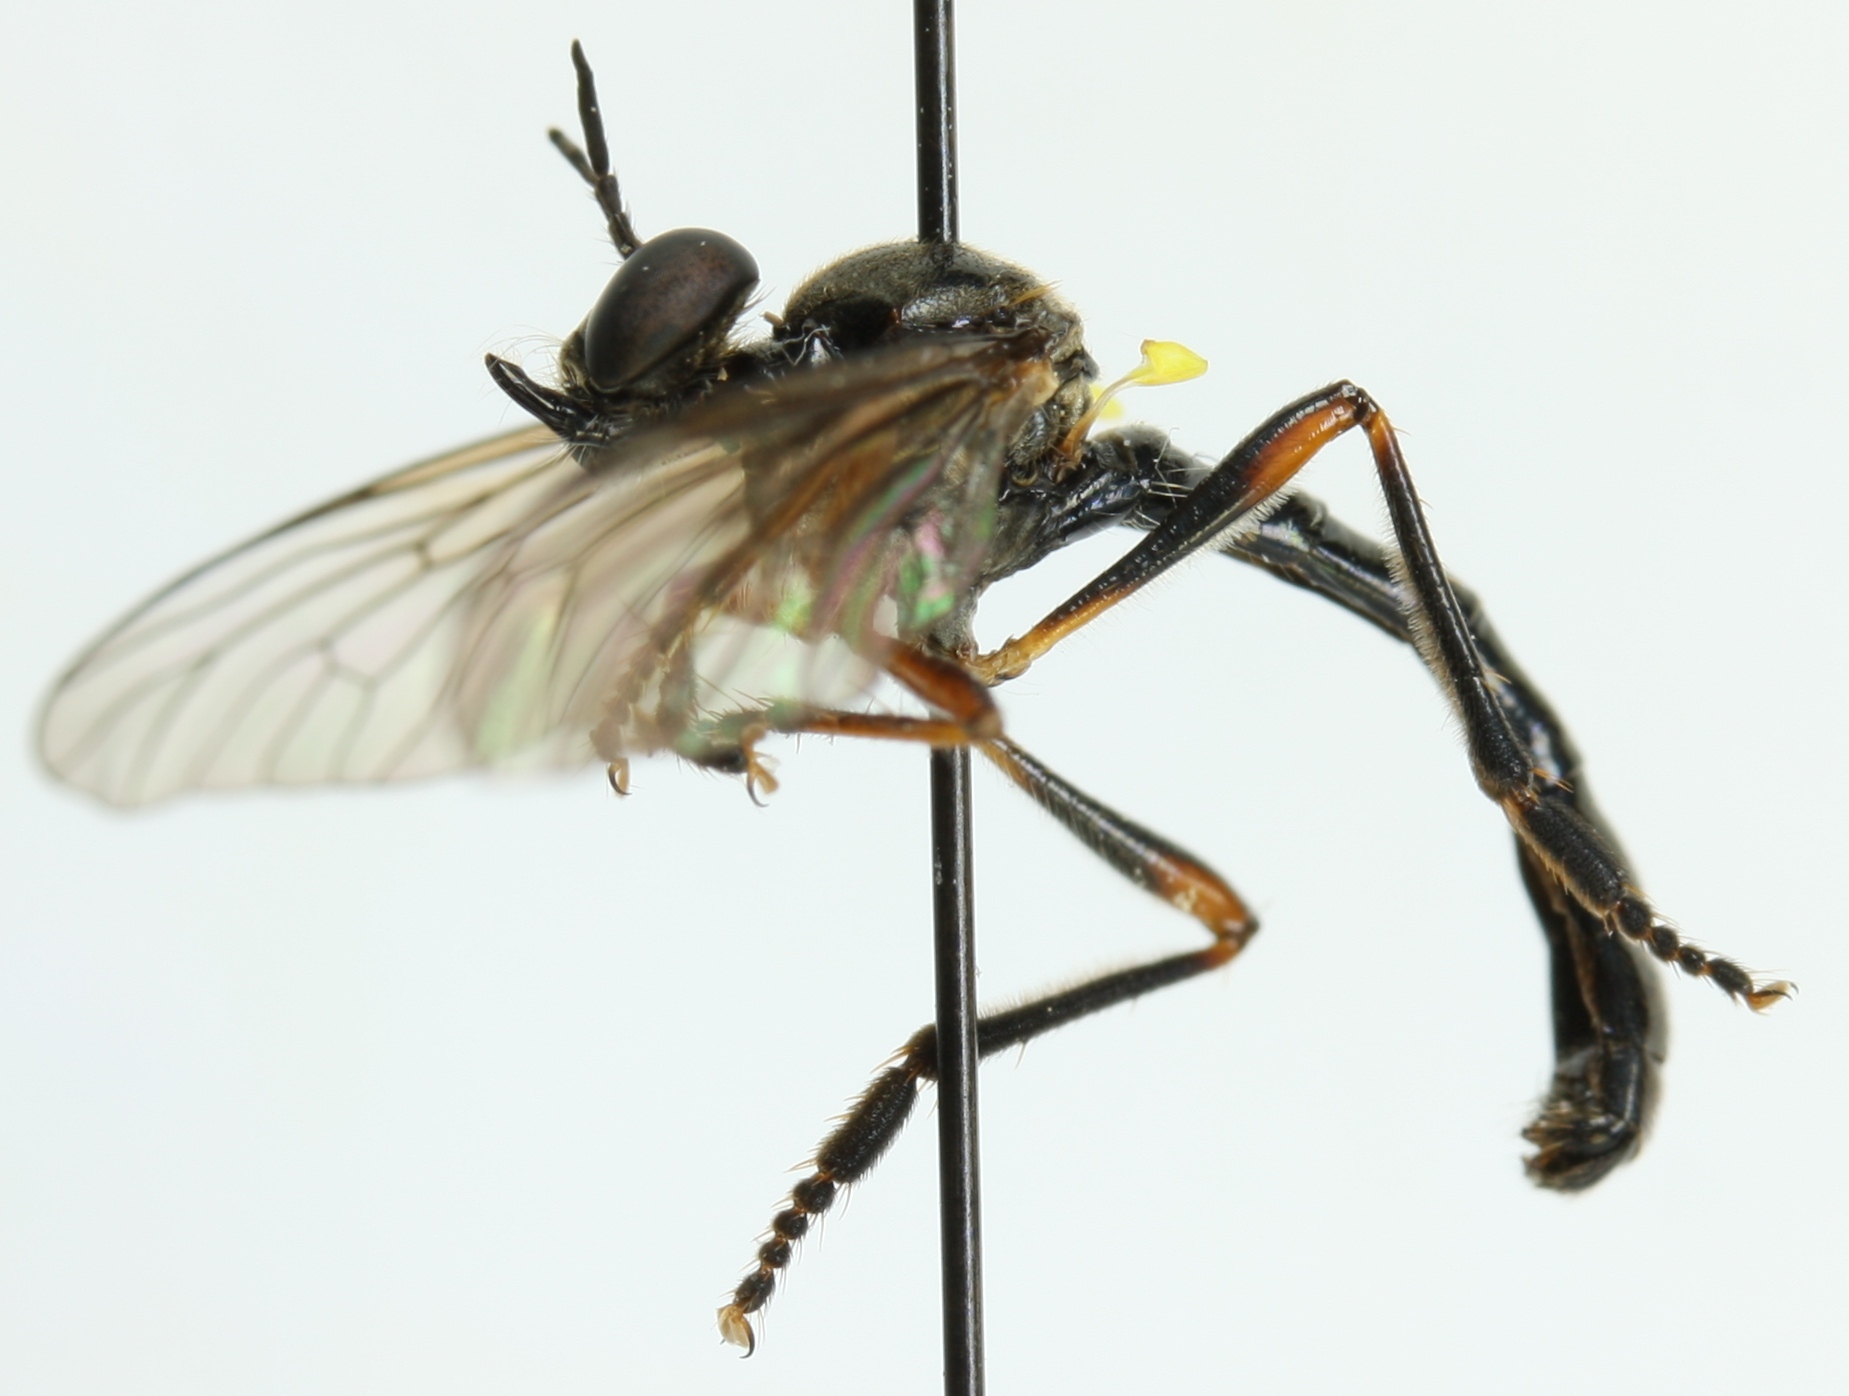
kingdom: Animalia
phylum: Arthropoda
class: Insecta
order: Diptera
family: Asilidae
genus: Dioctria
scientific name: Dioctria hyalipennis
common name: Stripe-legged robberfly
